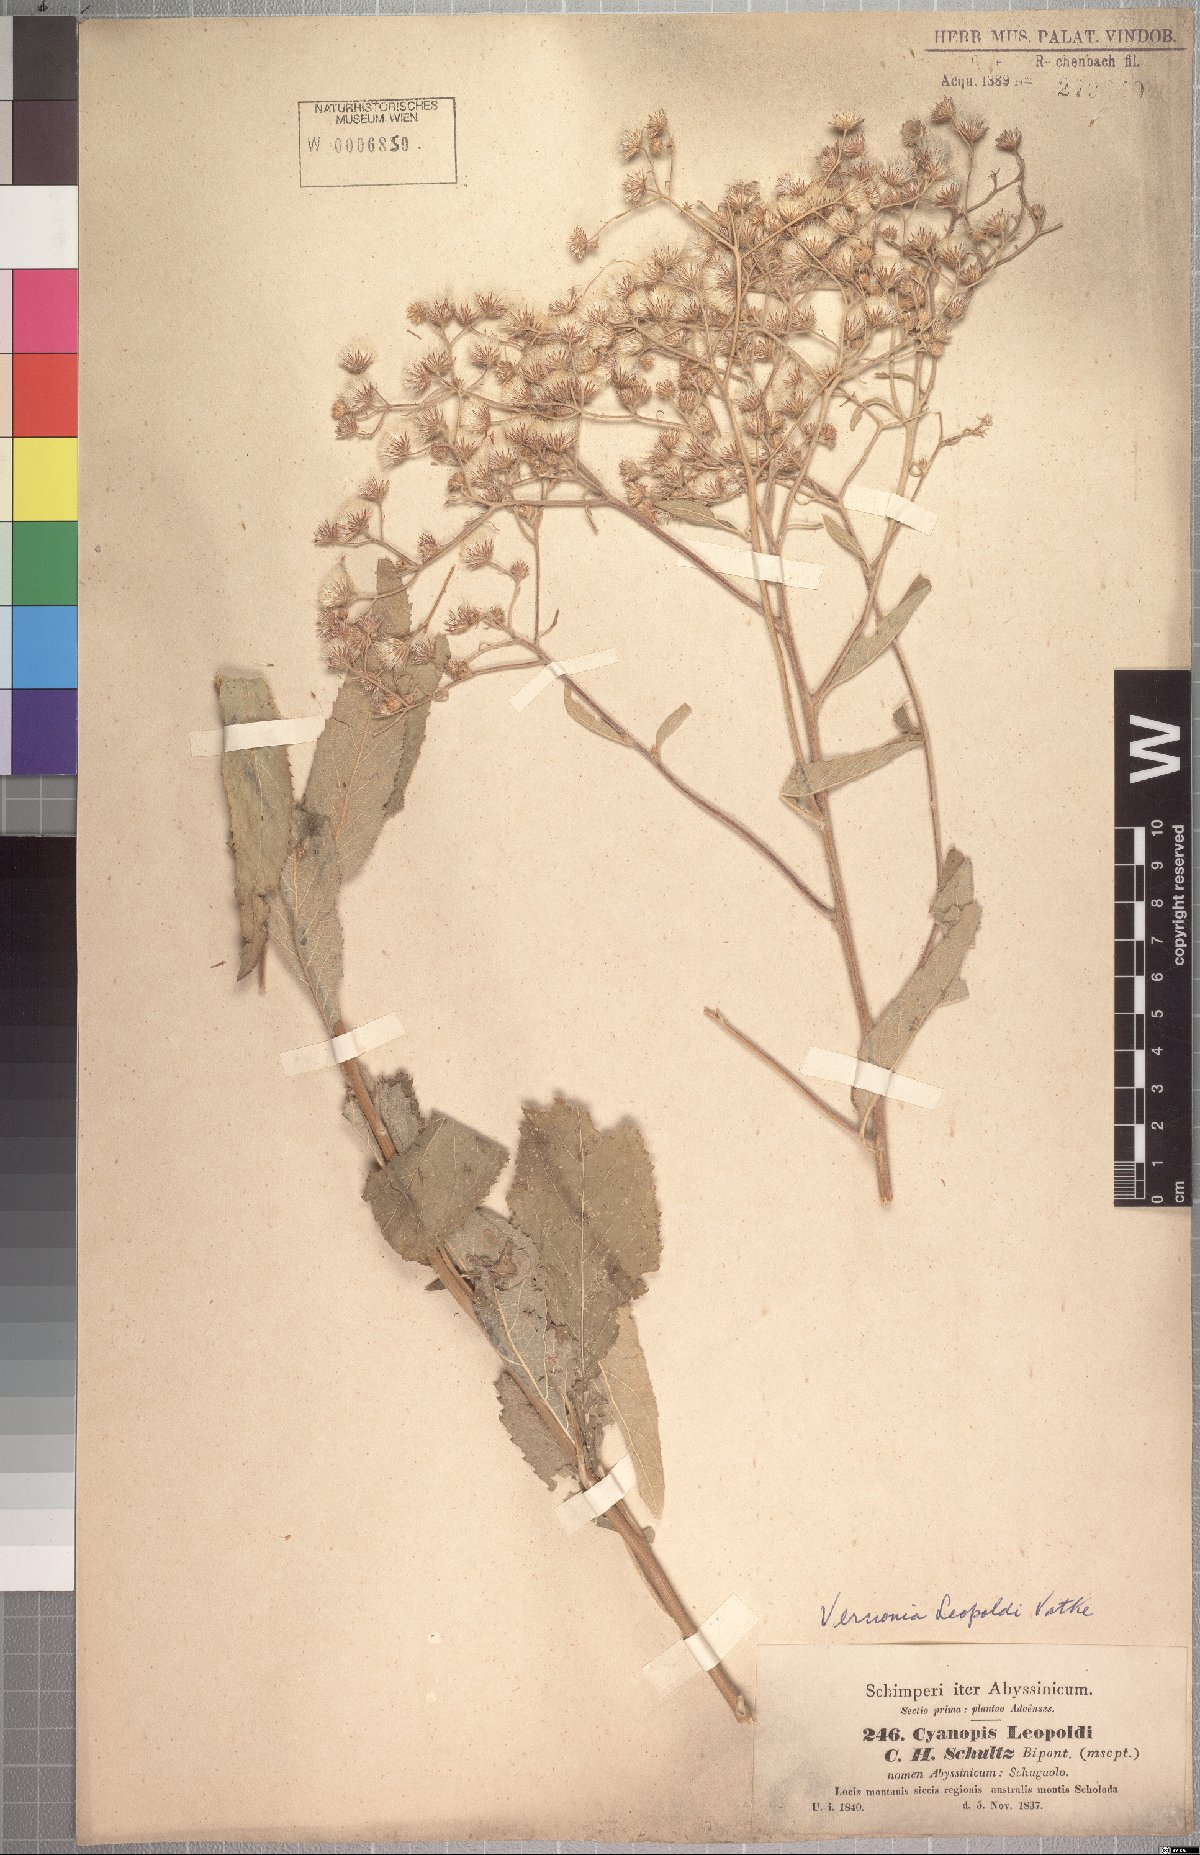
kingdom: Plantae
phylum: Tracheophyta
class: Magnoliopsida
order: Asterales
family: Asteraceae
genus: Vernonia
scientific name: Vernonia bipontini
